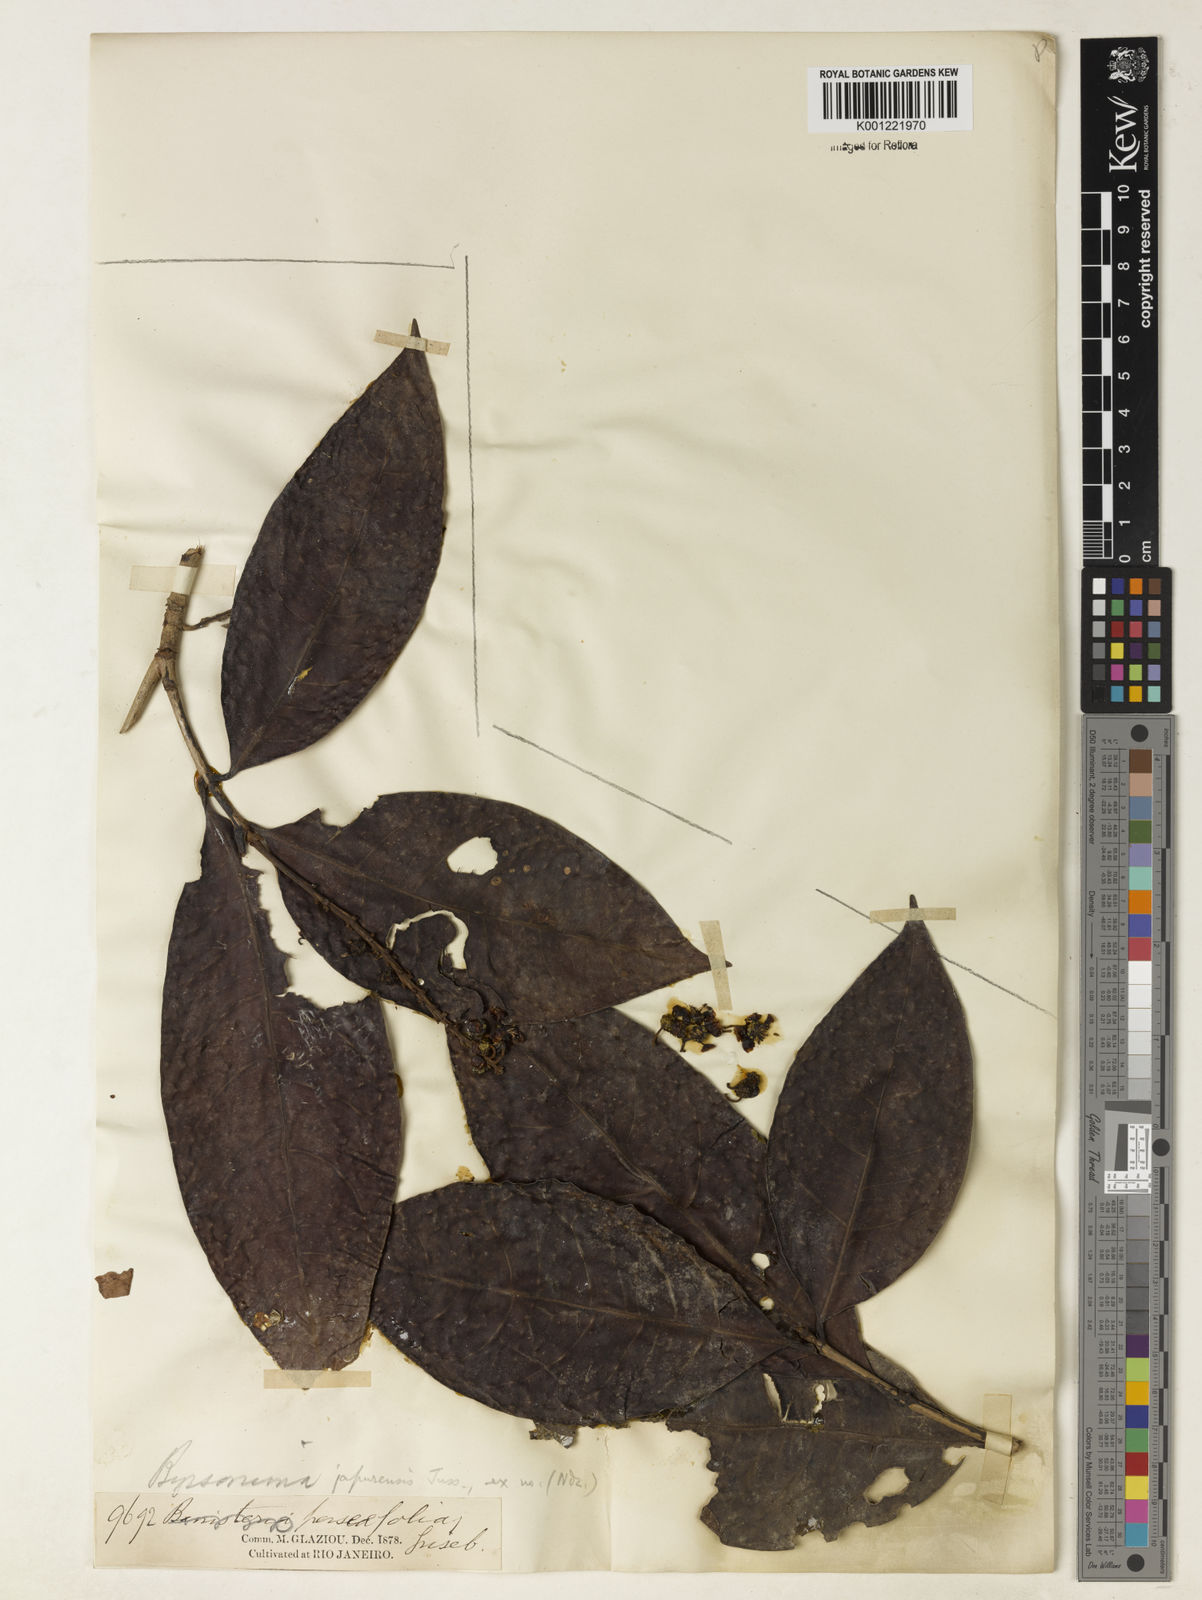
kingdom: Plantae
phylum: Tracheophyta
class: Magnoliopsida
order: Malpighiales
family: Malpighiaceae
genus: Byrsonima
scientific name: Byrsonima japurensis
